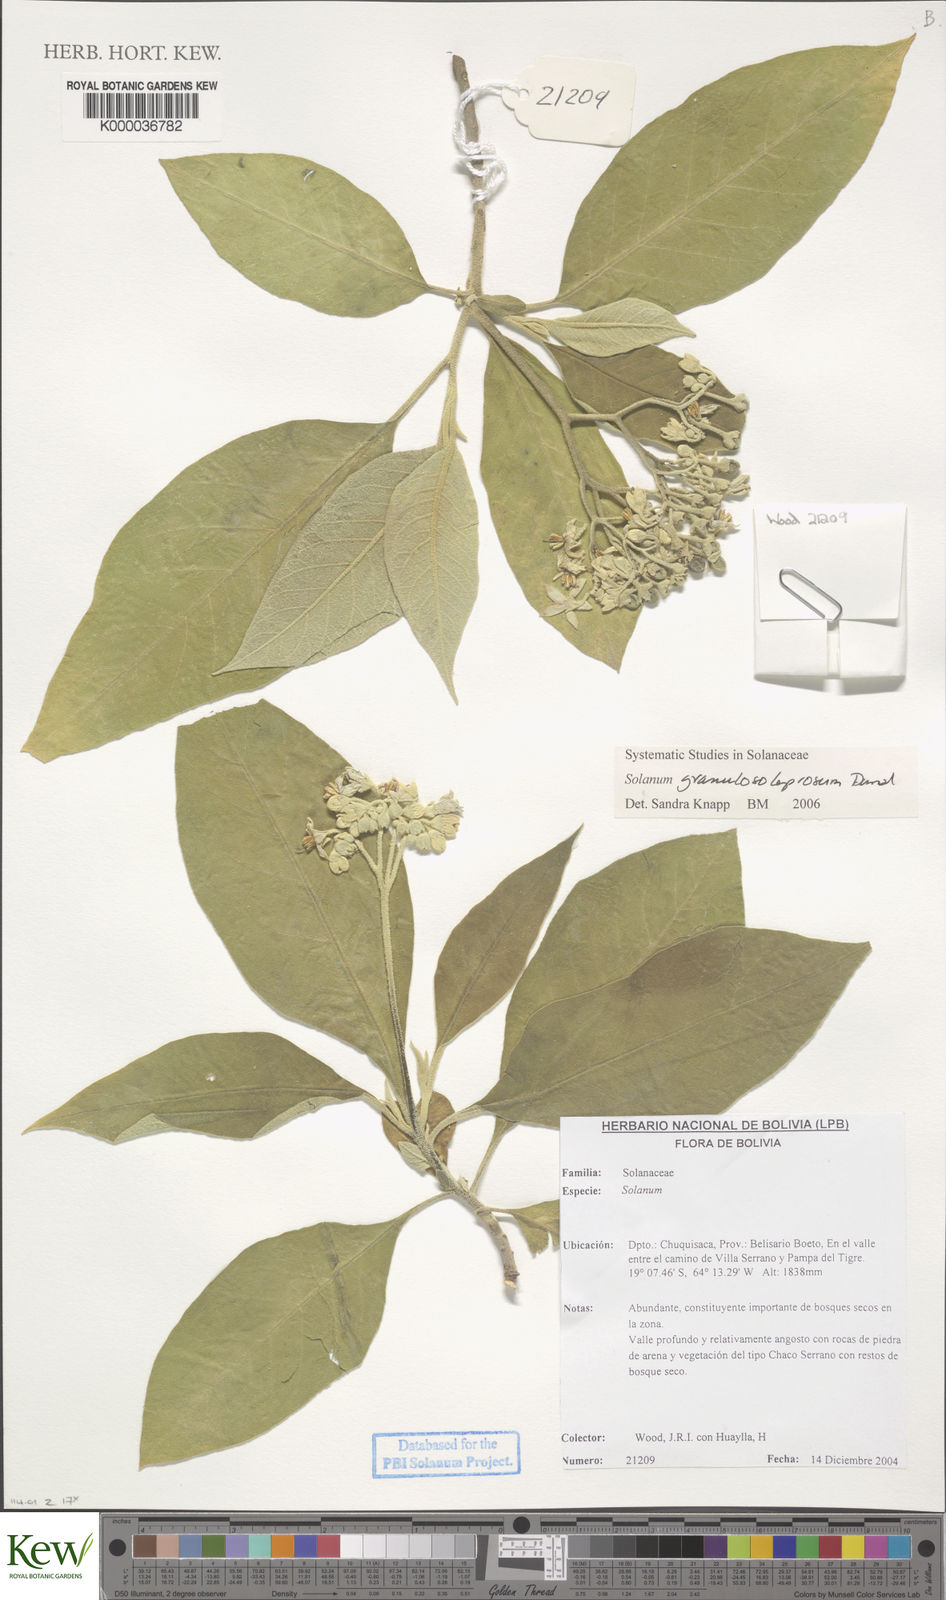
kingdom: Plantae
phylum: Tracheophyta
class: Magnoliopsida
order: Solanales
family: Solanaceae
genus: Solanum
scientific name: Solanum granulosoleprosum
